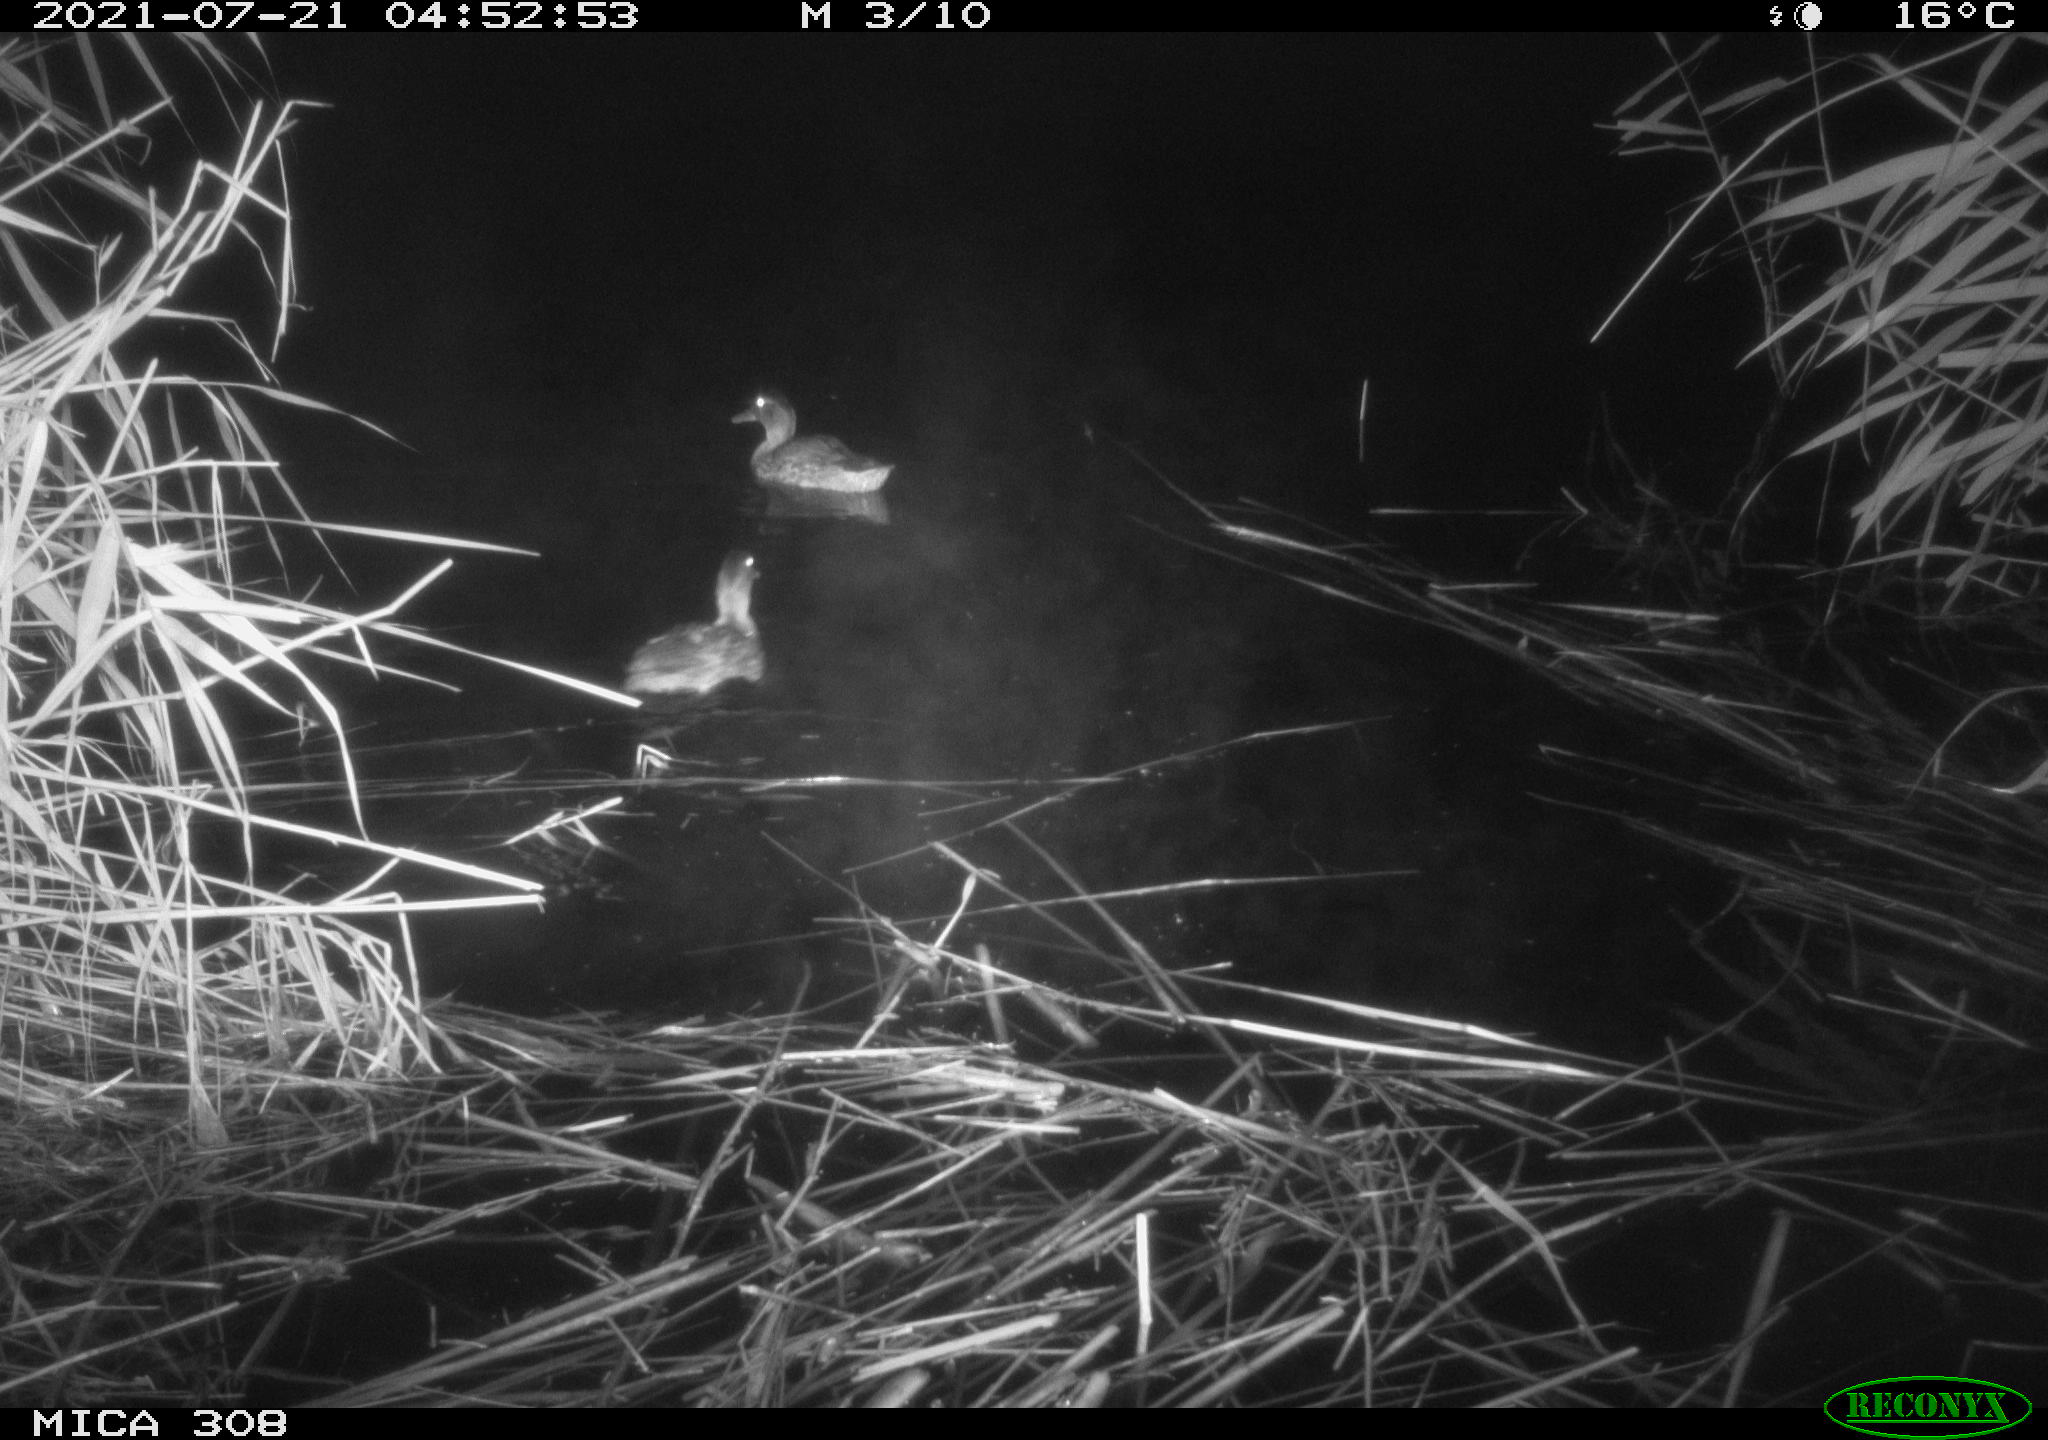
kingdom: Animalia
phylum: Chordata
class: Aves
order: Gruiformes
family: Rallidae
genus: Gallinula
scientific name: Gallinula chloropus
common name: Common moorhen
